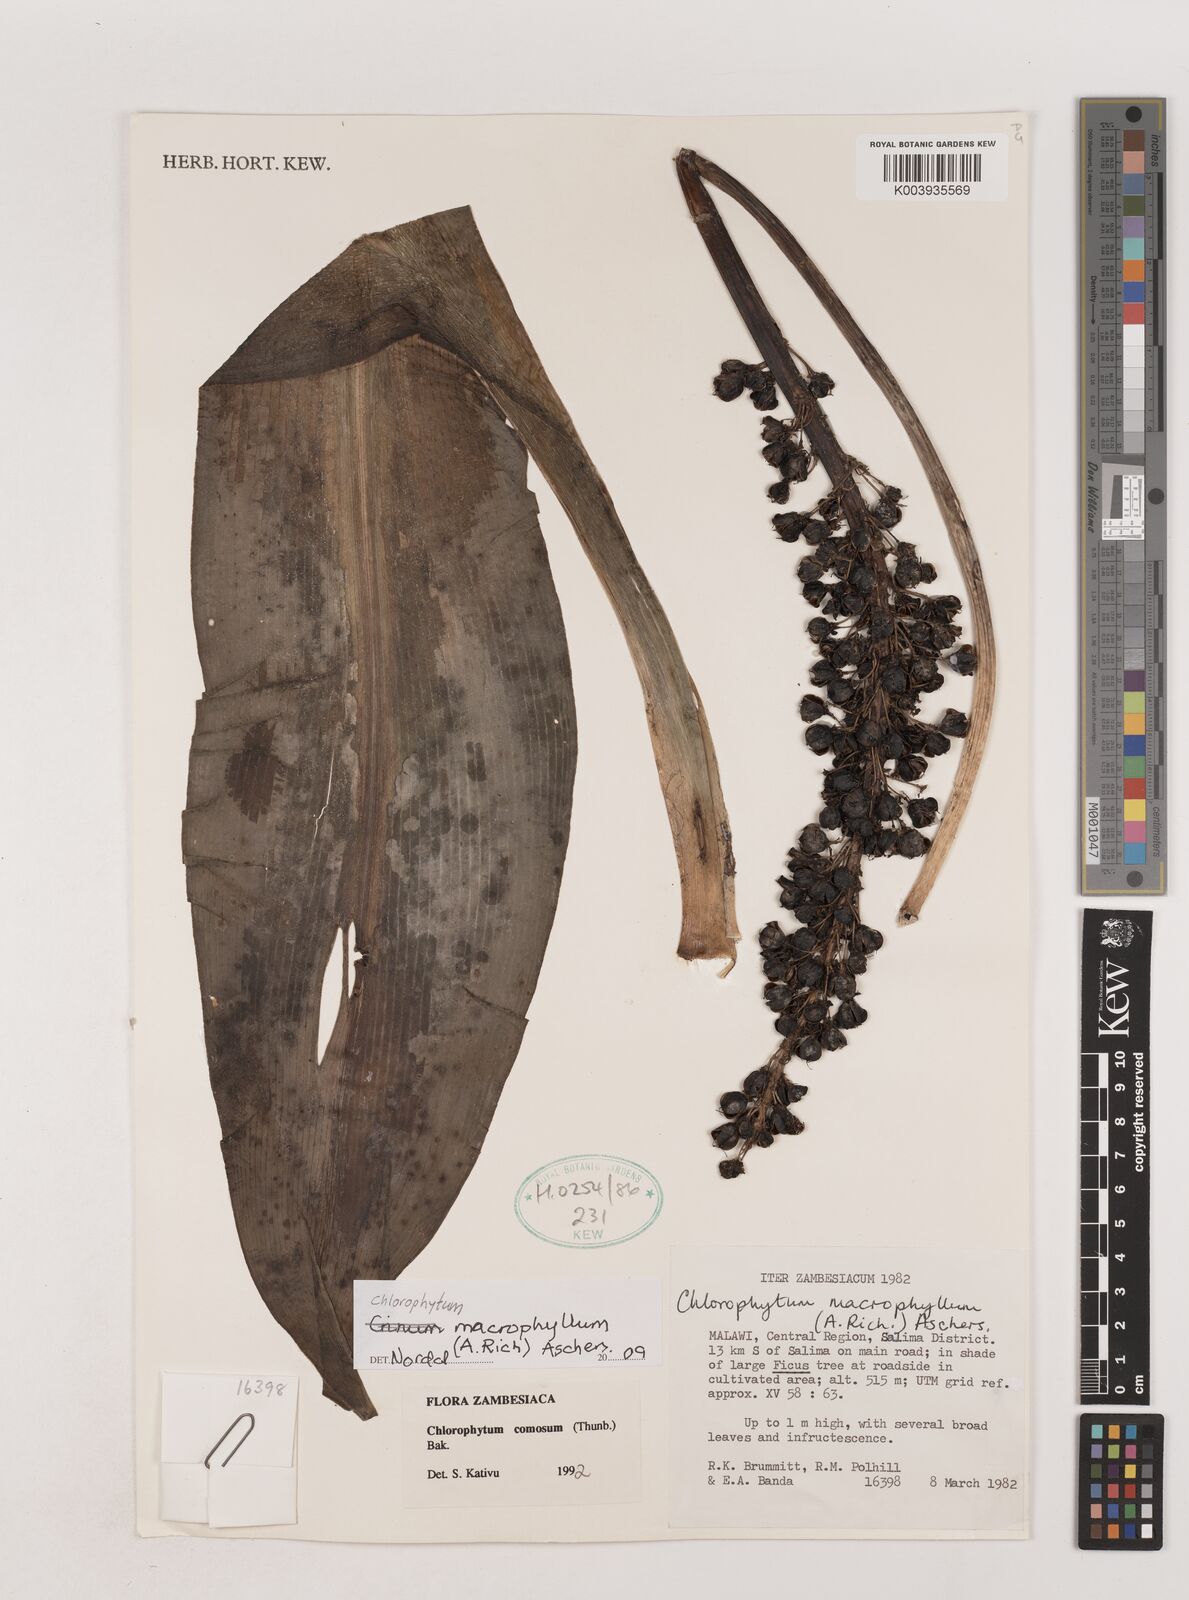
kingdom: Plantae
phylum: Tracheophyta
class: Liliopsida
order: Asparagales
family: Asparagaceae
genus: Chlorophytum
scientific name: Chlorophytum macrophyllum
